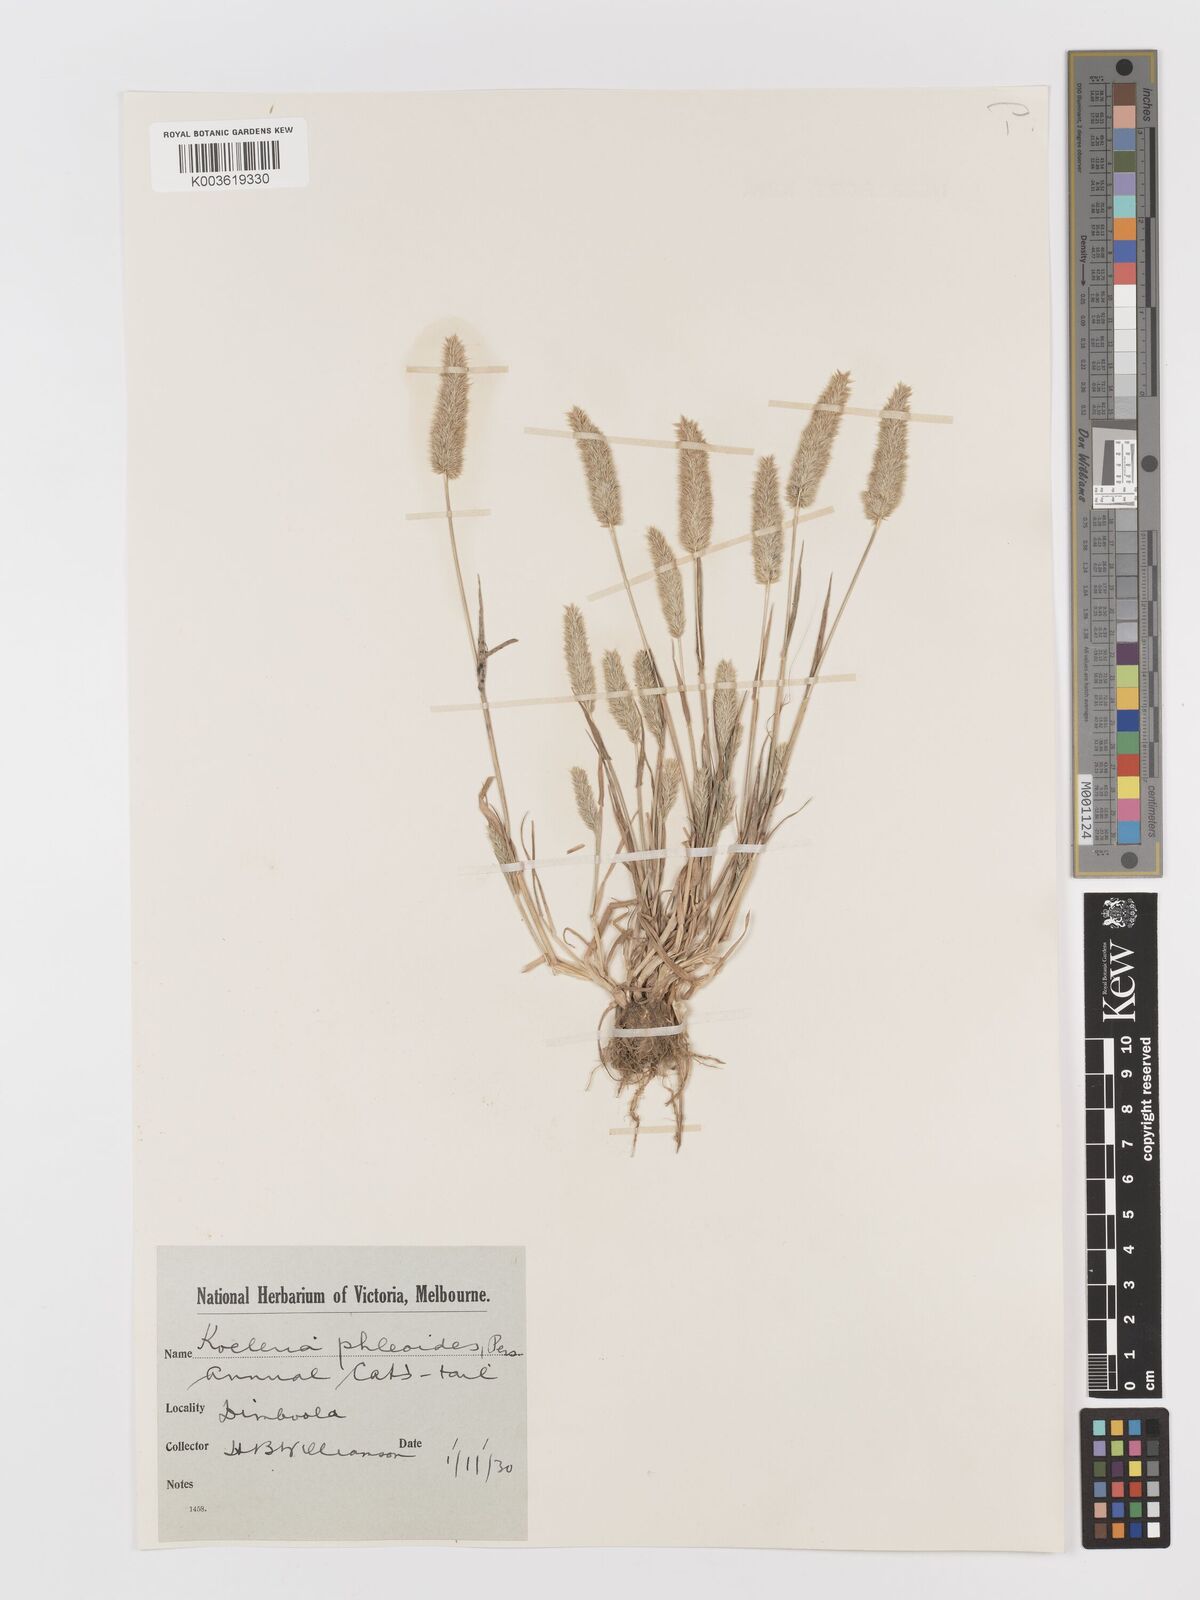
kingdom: Plantae
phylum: Tracheophyta
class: Liliopsida
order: Poales
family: Poaceae
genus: Rostraria
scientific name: Rostraria cristata
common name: Mediterranean hair-grass
